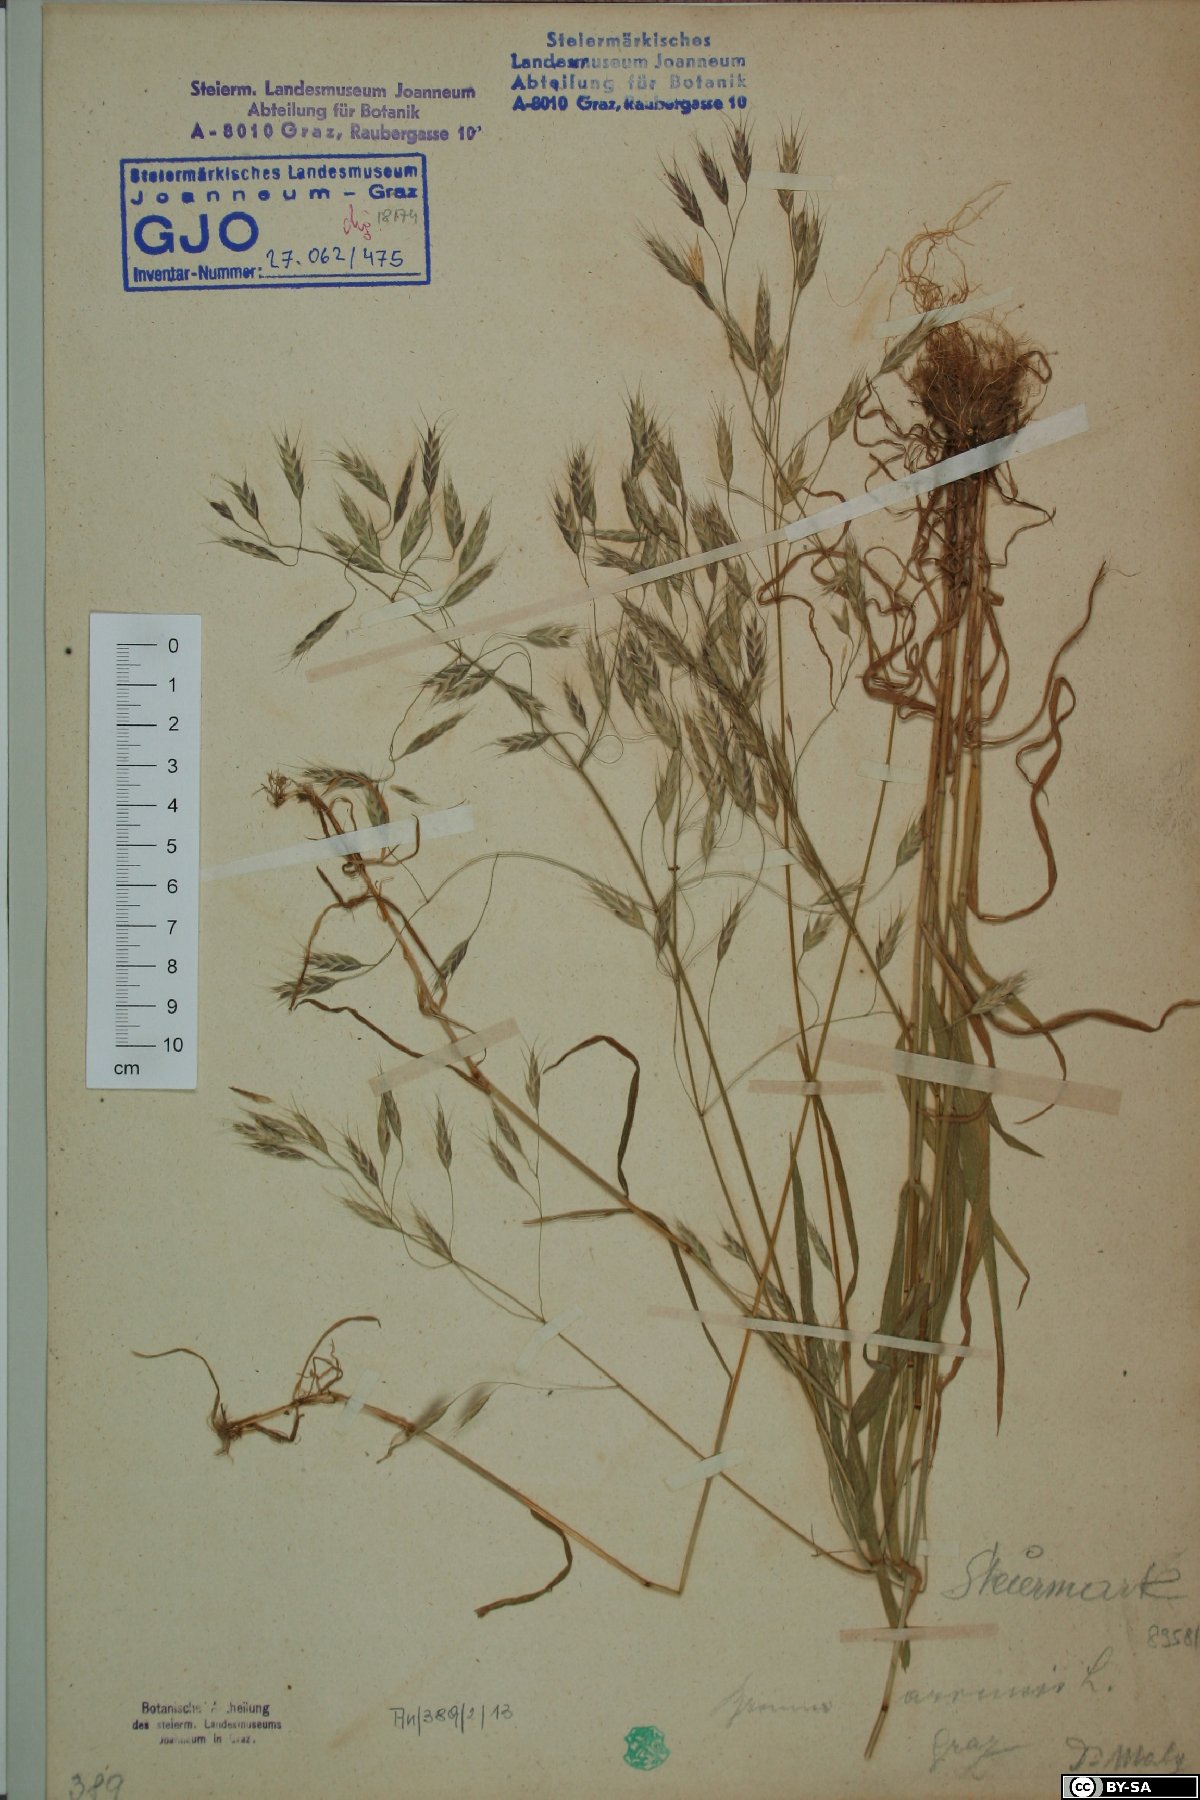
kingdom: Plantae
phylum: Tracheophyta
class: Liliopsida
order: Poales
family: Poaceae
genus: Bromus
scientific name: Bromus arvensis
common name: Field brome
